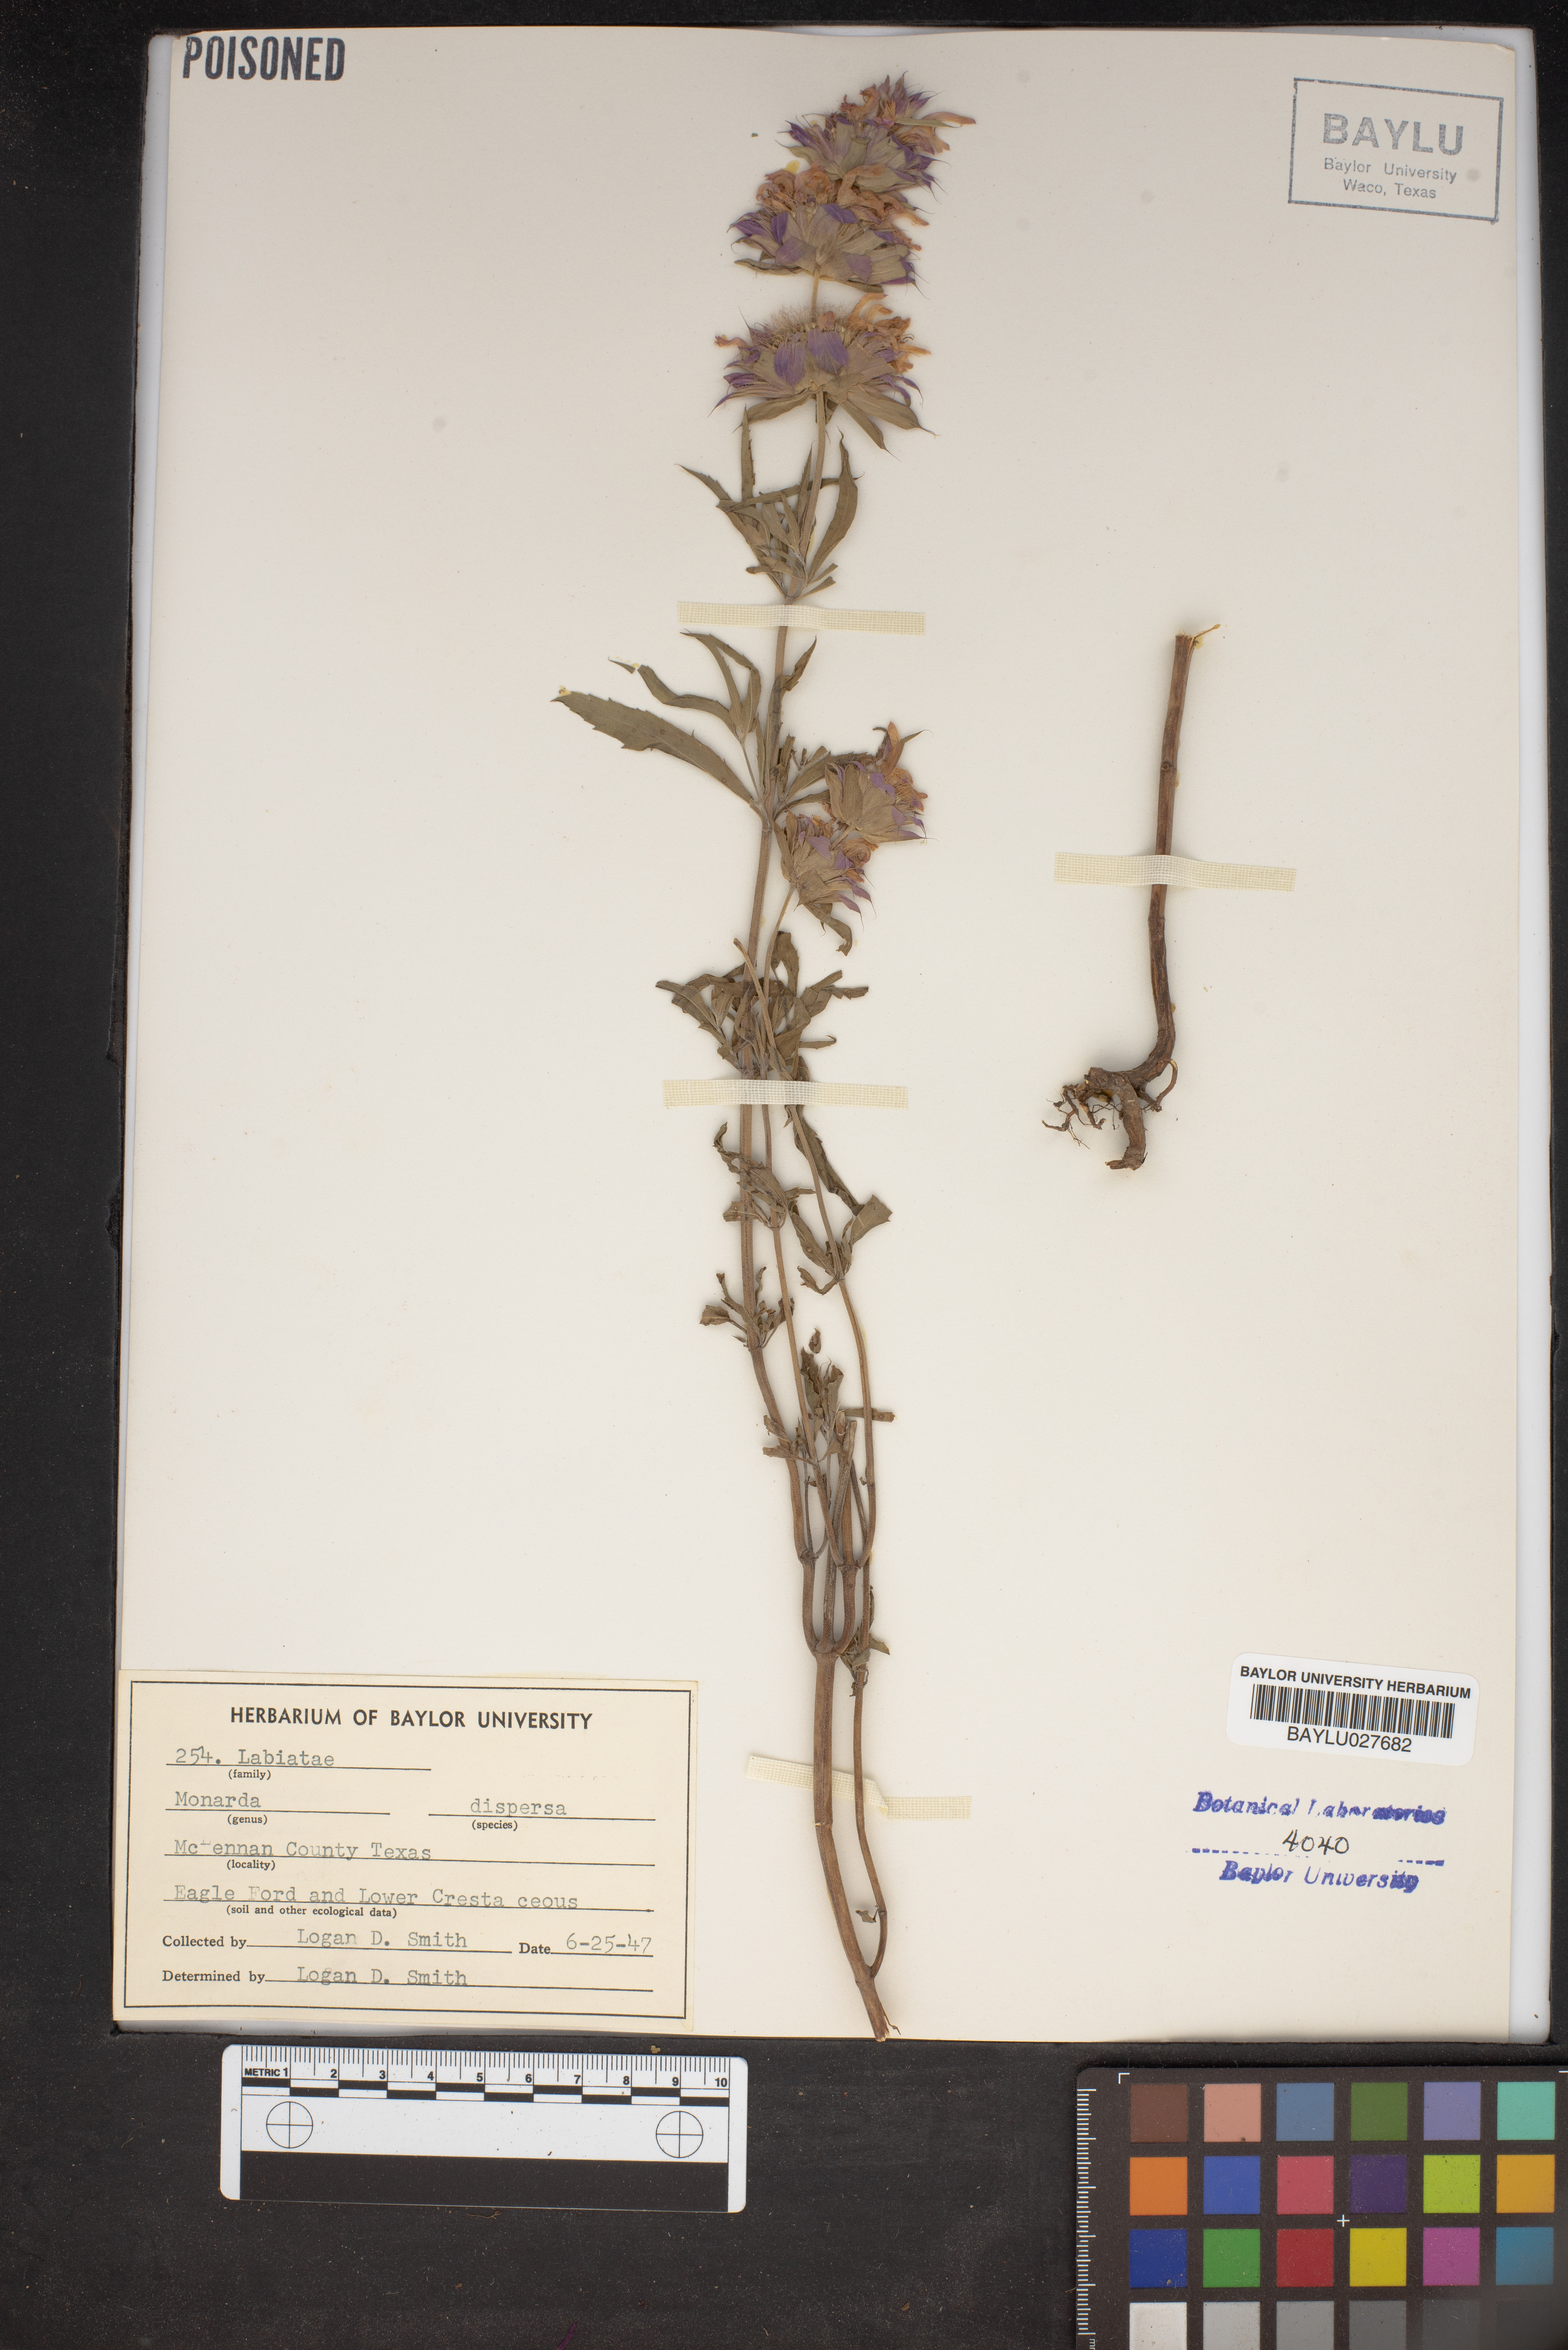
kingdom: Plantae
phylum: Tracheophyta
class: Magnoliopsida
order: Lamiales
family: Lamiaceae
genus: Monarda
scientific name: Monarda citriodora
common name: Lemon beebalm
